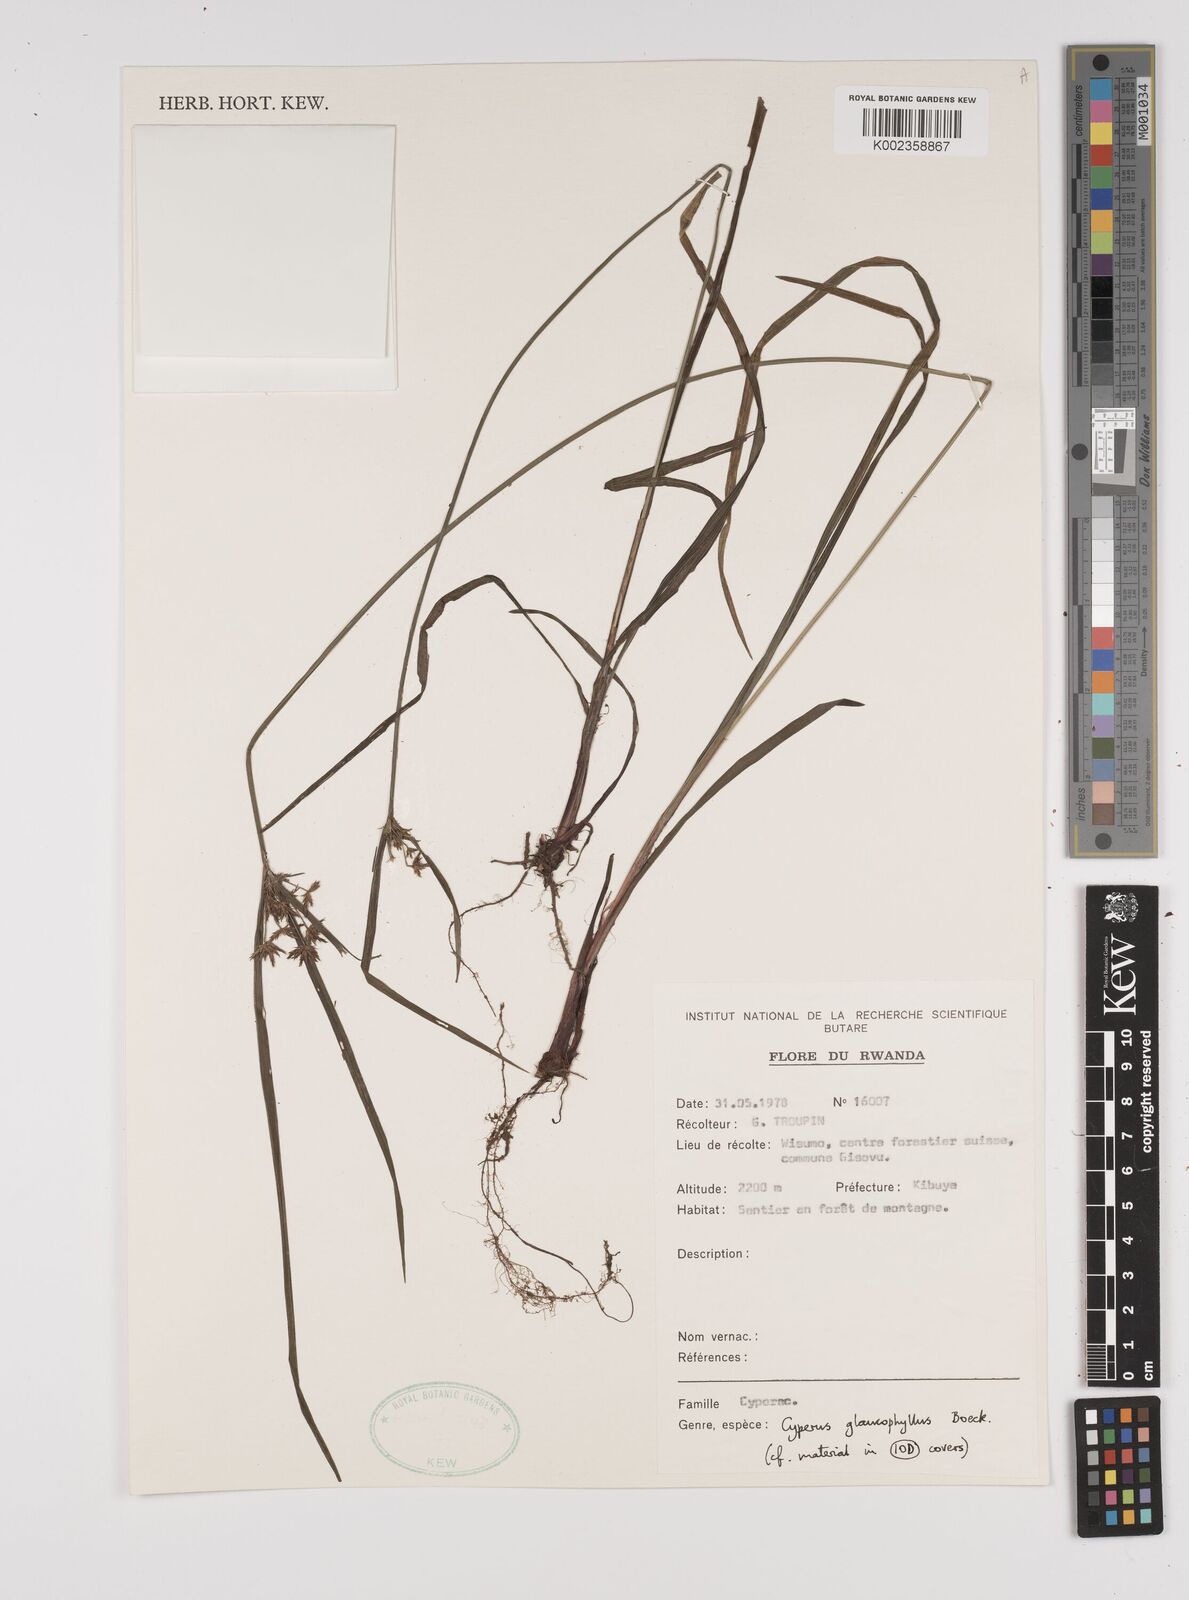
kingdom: Plantae
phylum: Tracheophyta
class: Liliopsida
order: Poales
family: Cyperaceae
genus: Cyperus
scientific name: Cyperus glaucophyllus
